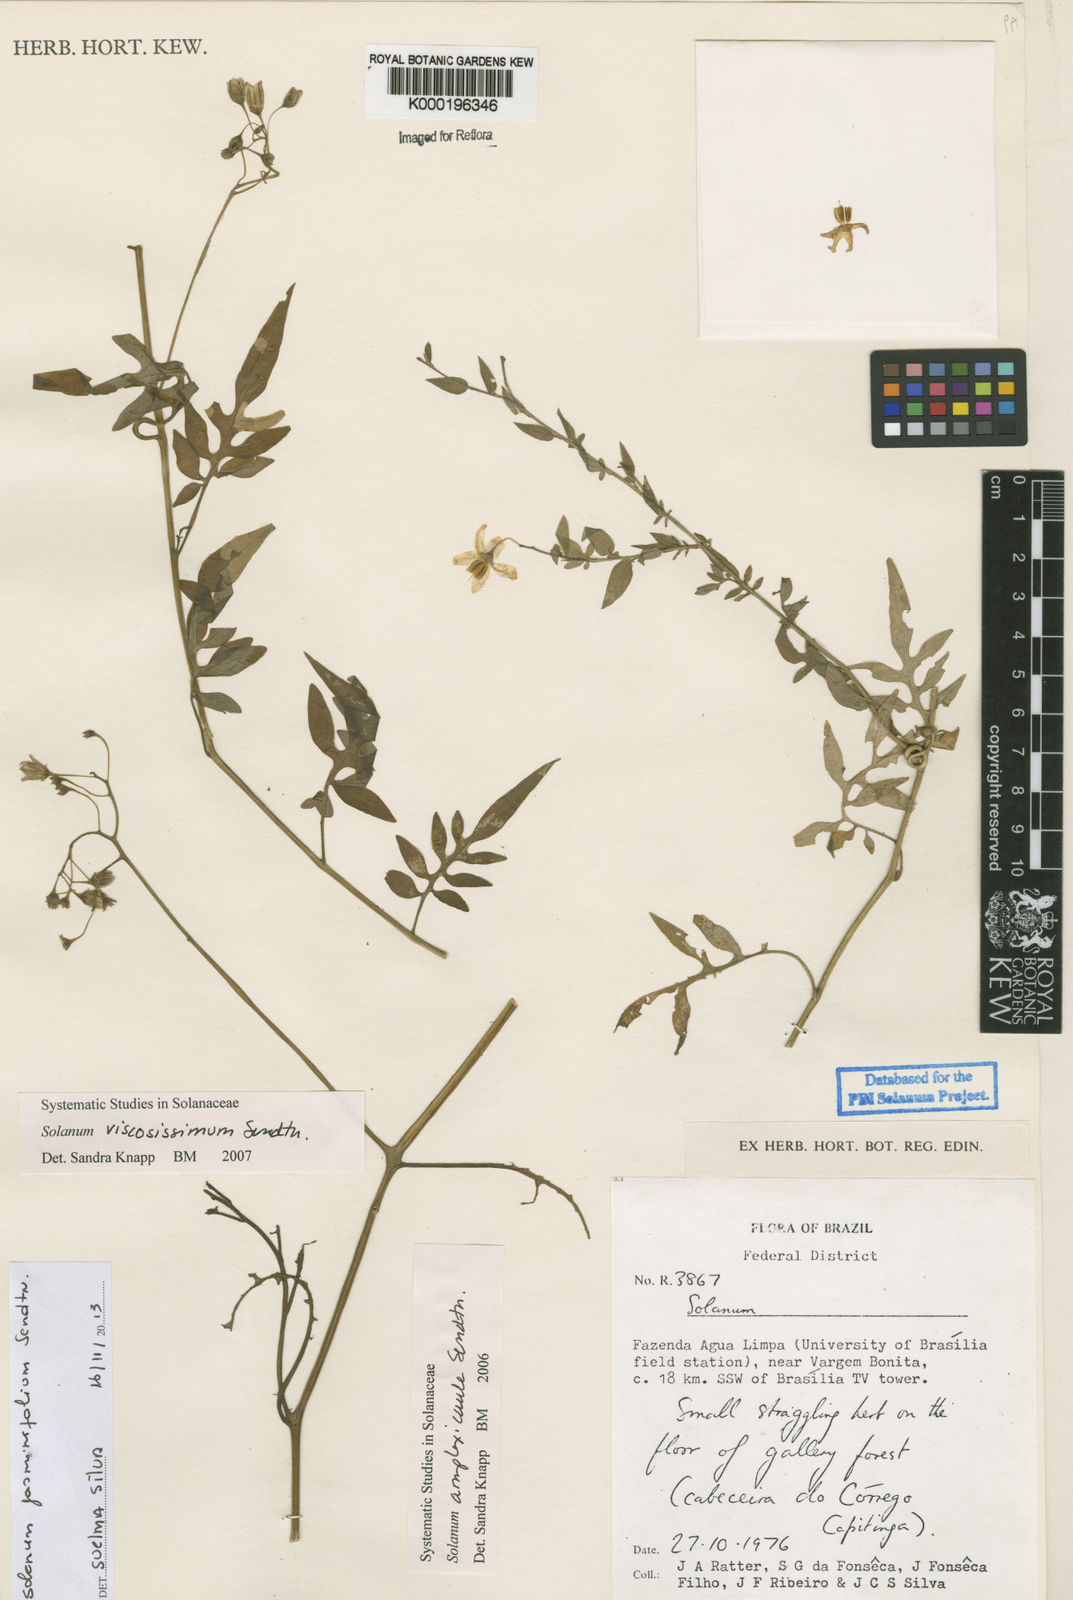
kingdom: Plantae
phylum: Tracheophyta
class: Magnoliopsida
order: Solanales
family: Solanaceae
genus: Solanum
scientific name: Solanum viscosissimum
